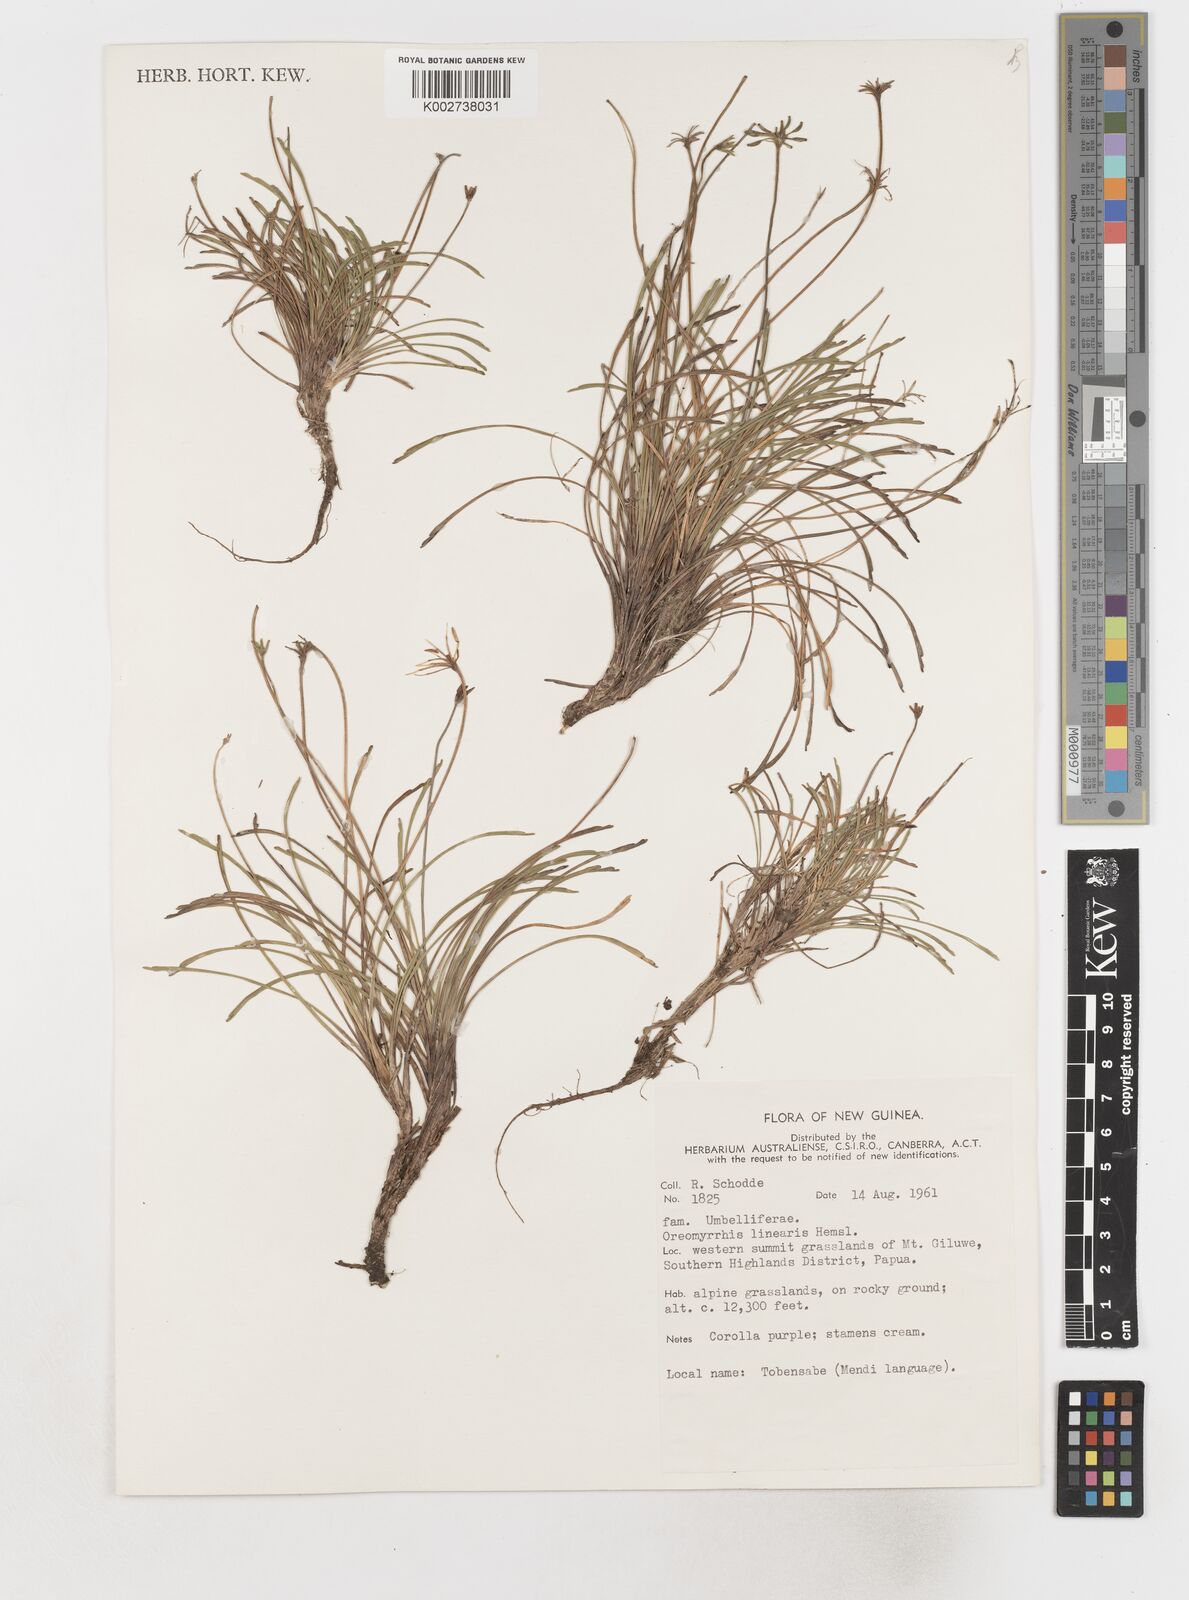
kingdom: Plantae
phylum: Tracheophyta
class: Magnoliopsida
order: Apiales
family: Apiaceae
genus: Chaerophyllum
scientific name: Chaerophyllum lineare
